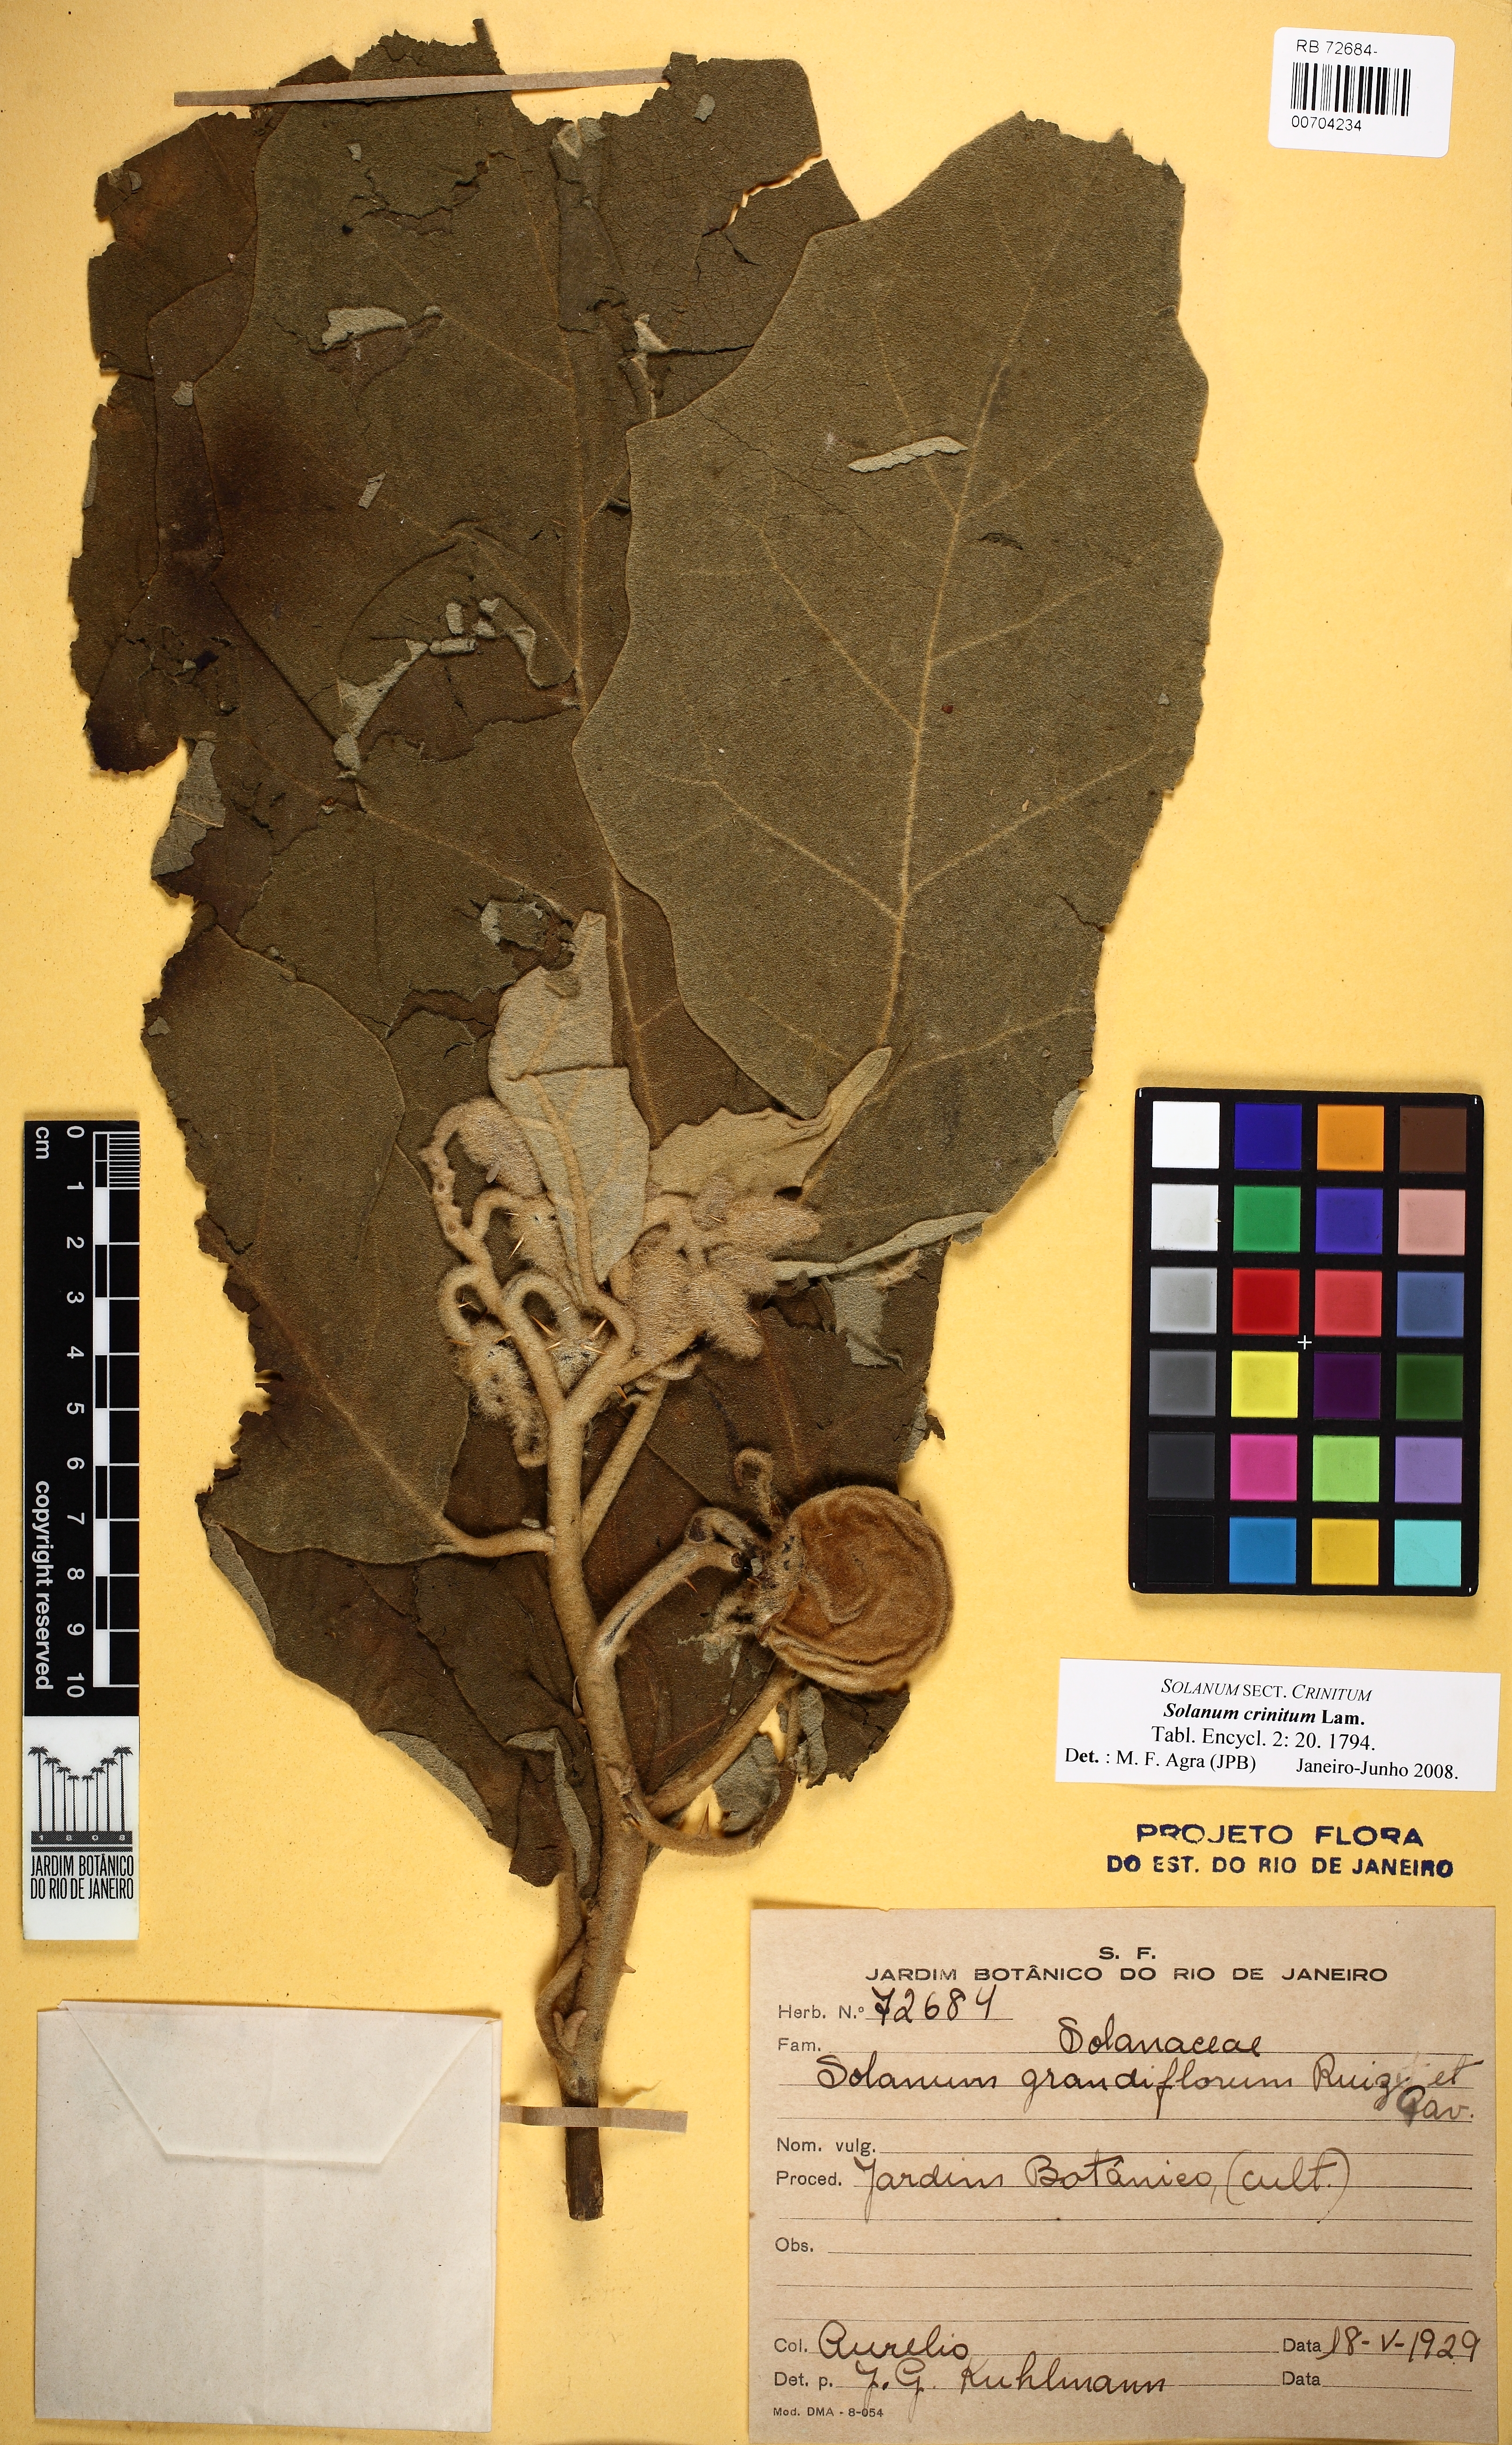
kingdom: Plantae
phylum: Tracheophyta
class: Magnoliopsida
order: Solanales
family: Solanaceae
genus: Solanum
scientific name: Solanum crinitum
